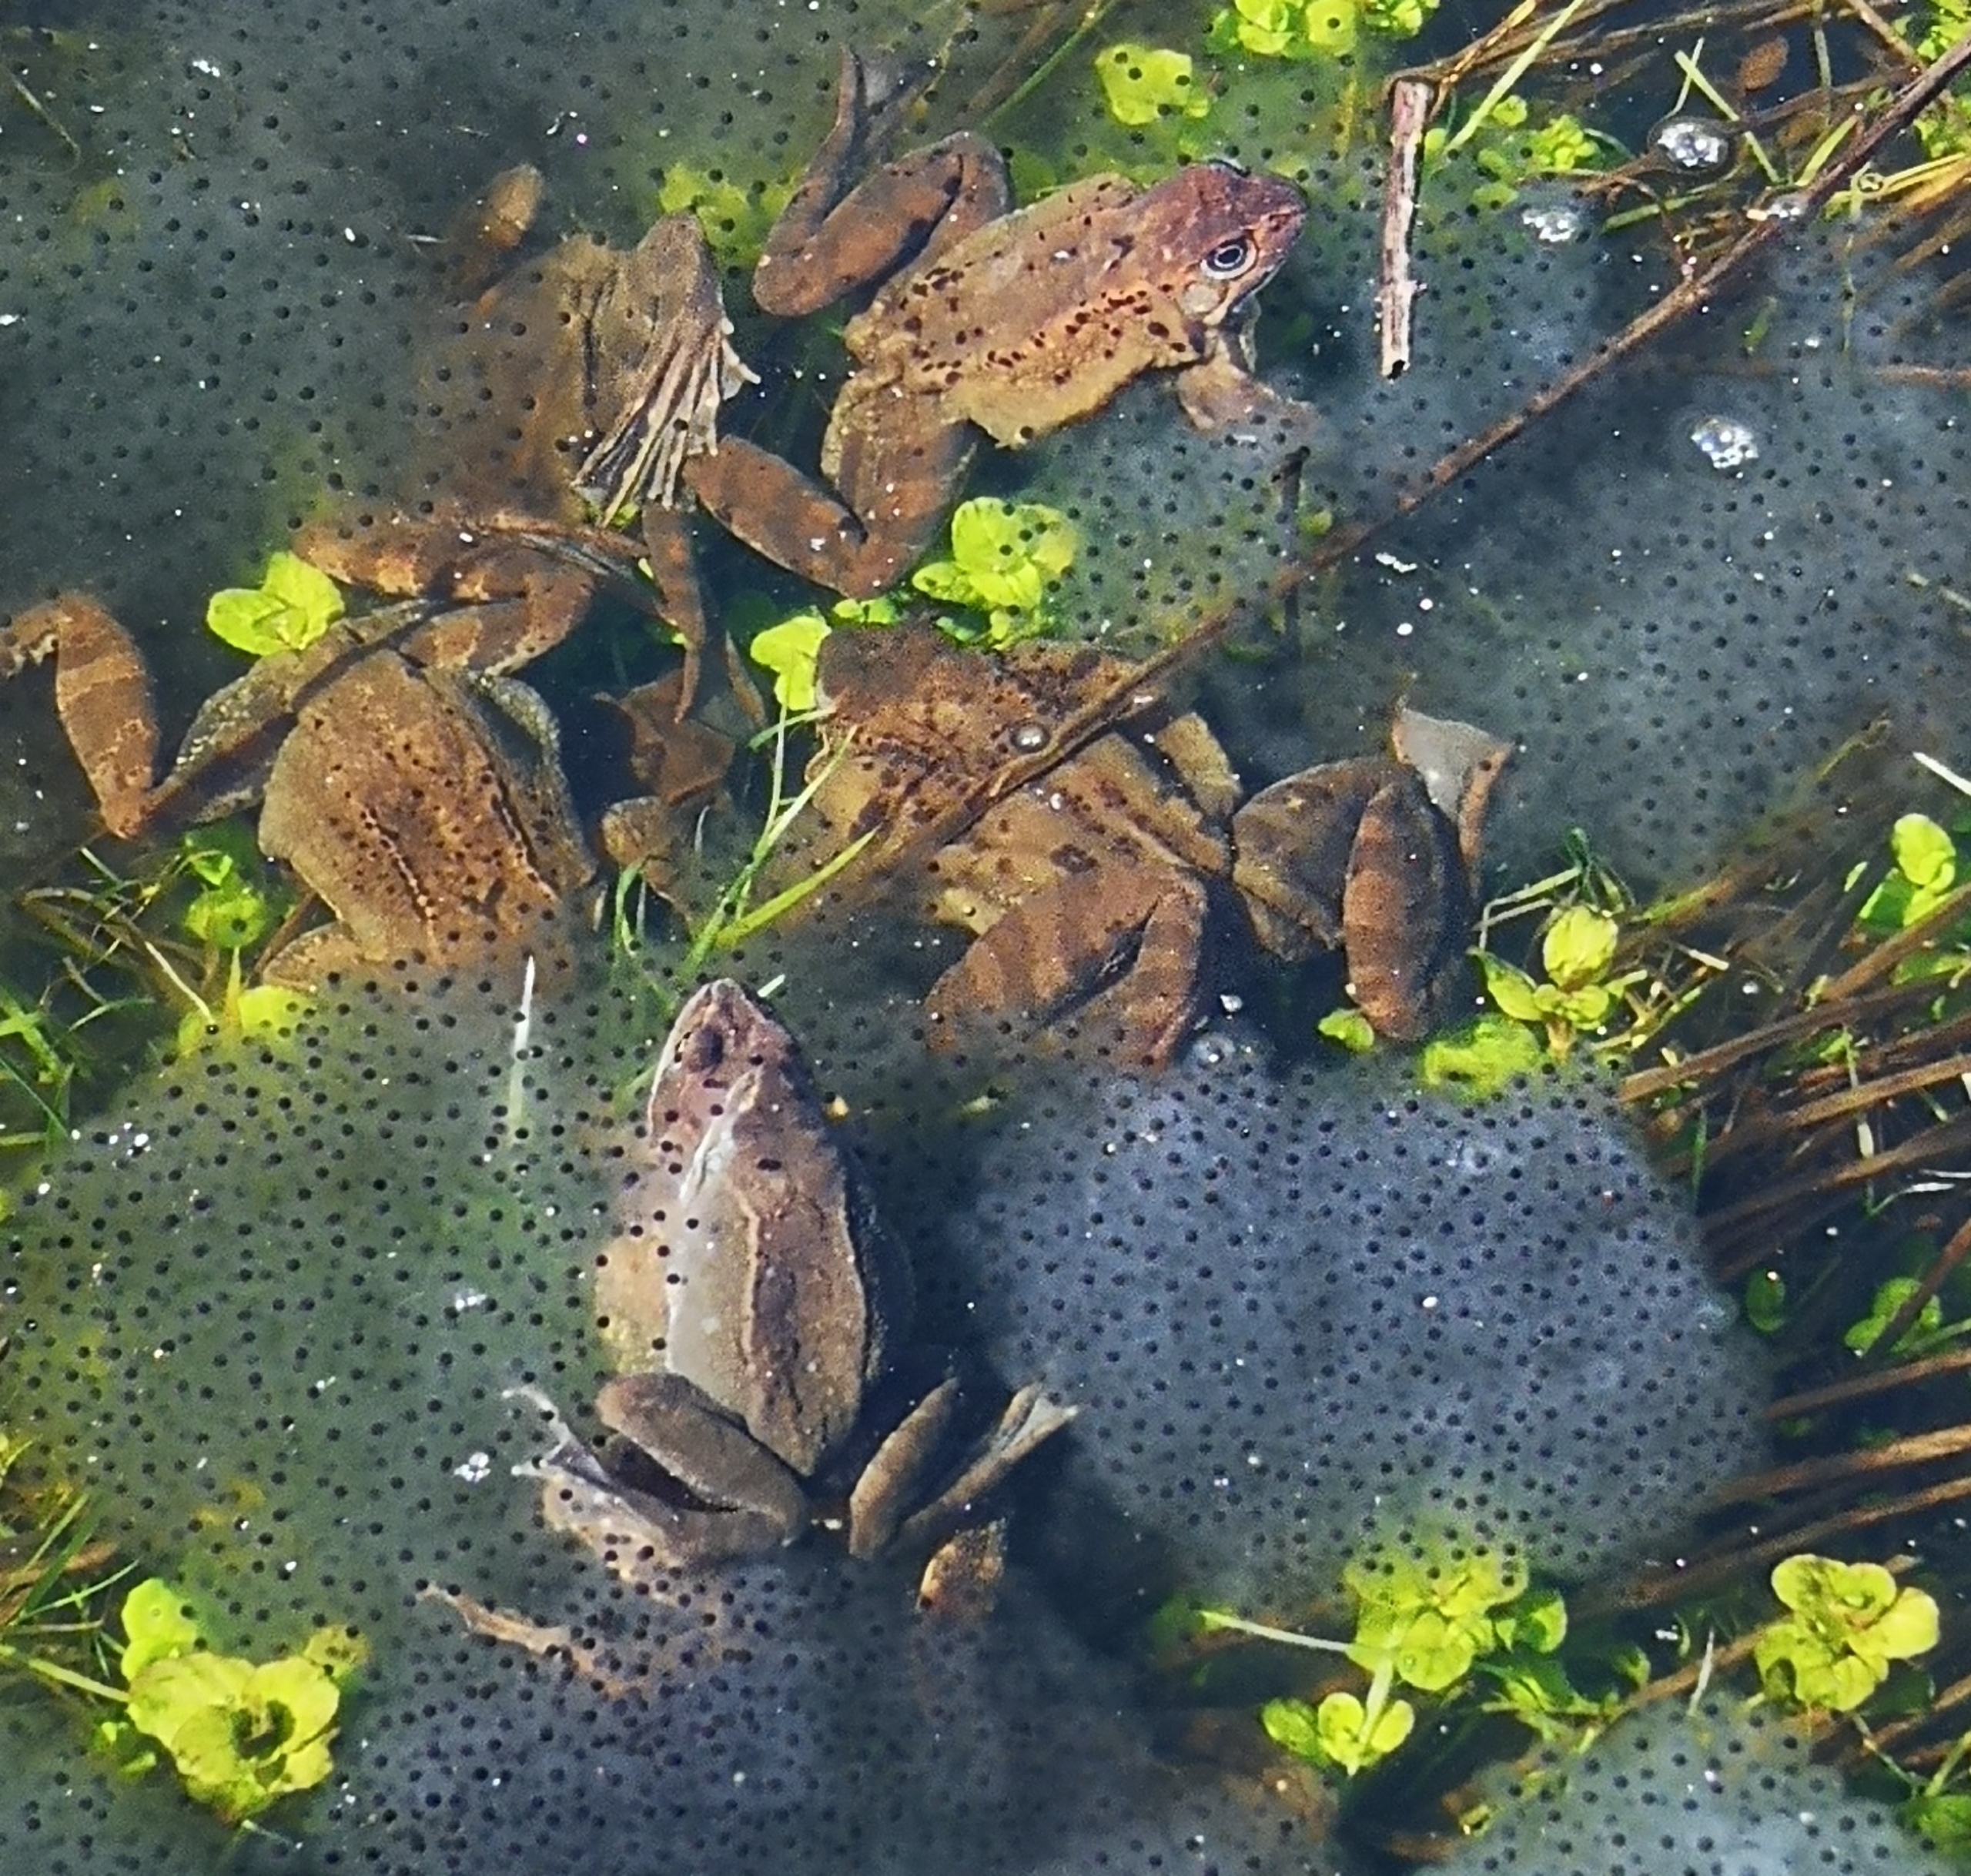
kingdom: Animalia
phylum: Chordata
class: Amphibia
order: Anura
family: Ranidae
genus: Rana
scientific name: Rana temporaria
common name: Butsnudet frø
